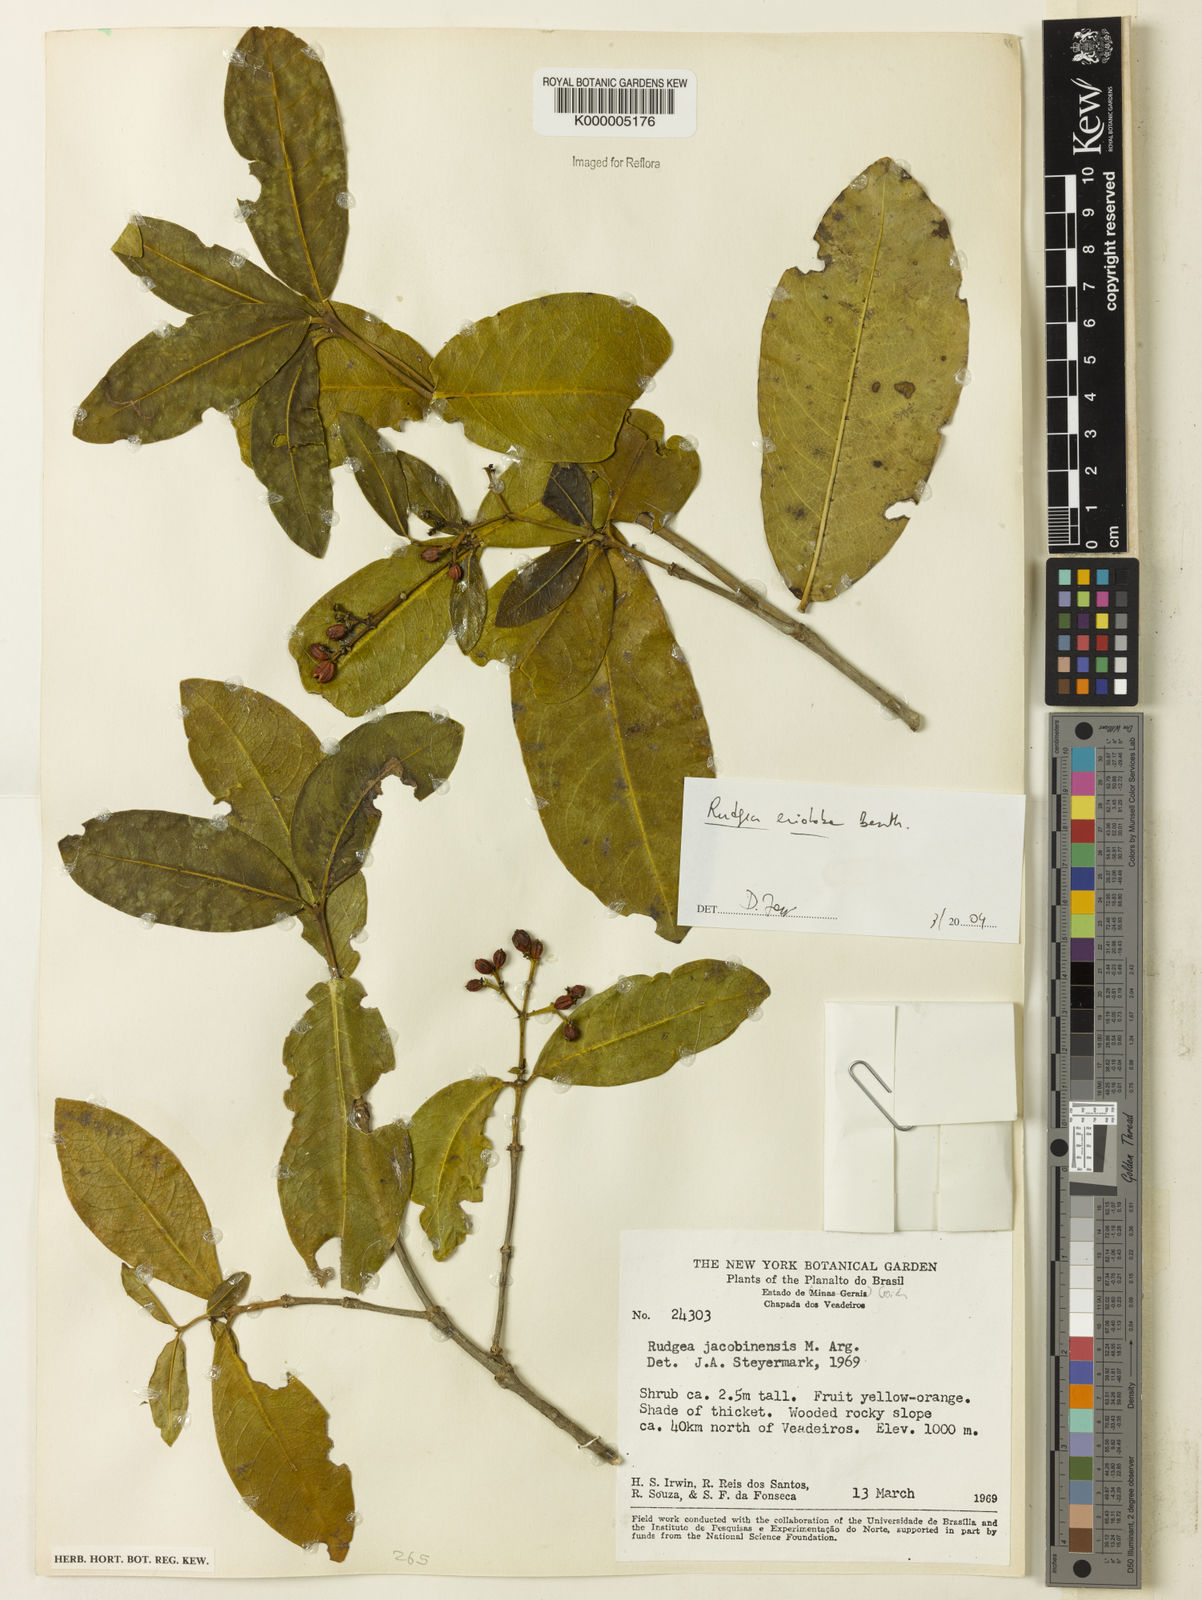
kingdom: Plantae
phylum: Tracheophyta
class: Magnoliopsida
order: Gentianales
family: Rubiaceae
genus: Rudgea
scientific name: Rudgea erioloba
